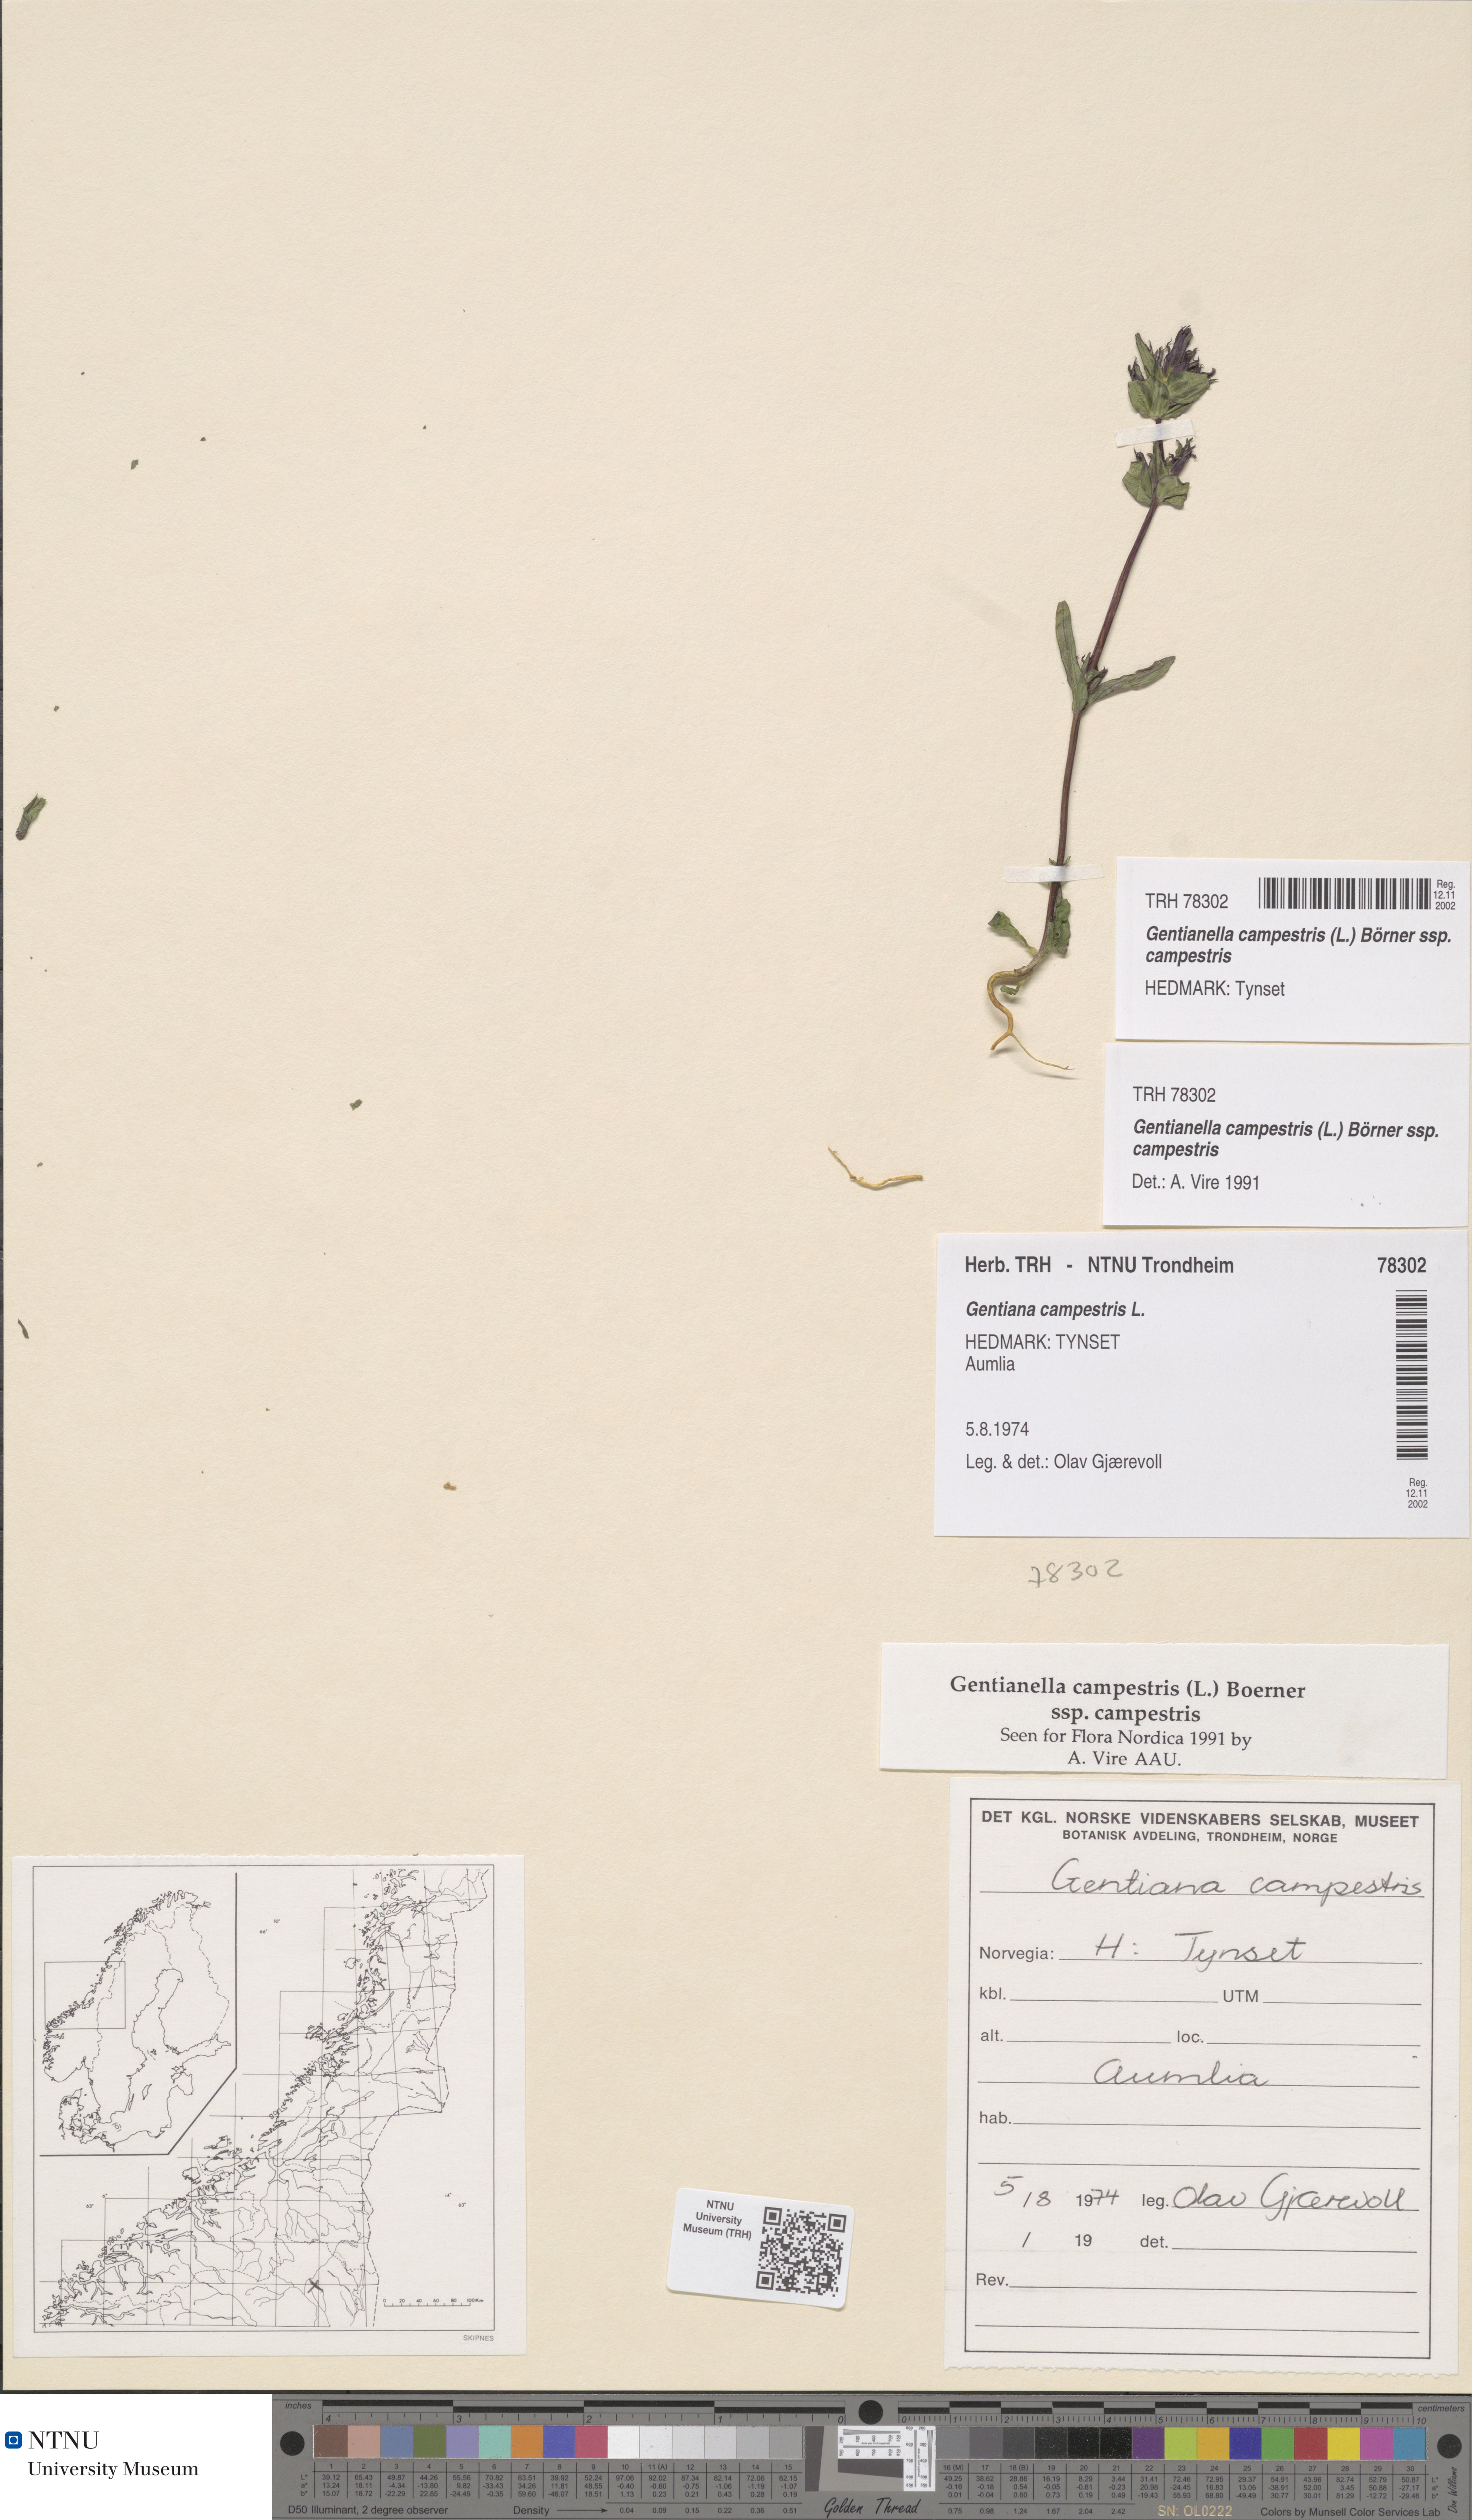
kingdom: Plantae
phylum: Tracheophyta
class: Magnoliopsida
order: Gentianales
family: Gentianaceae
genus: Gentianella
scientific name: Gentianella campestris
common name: Field gentian
